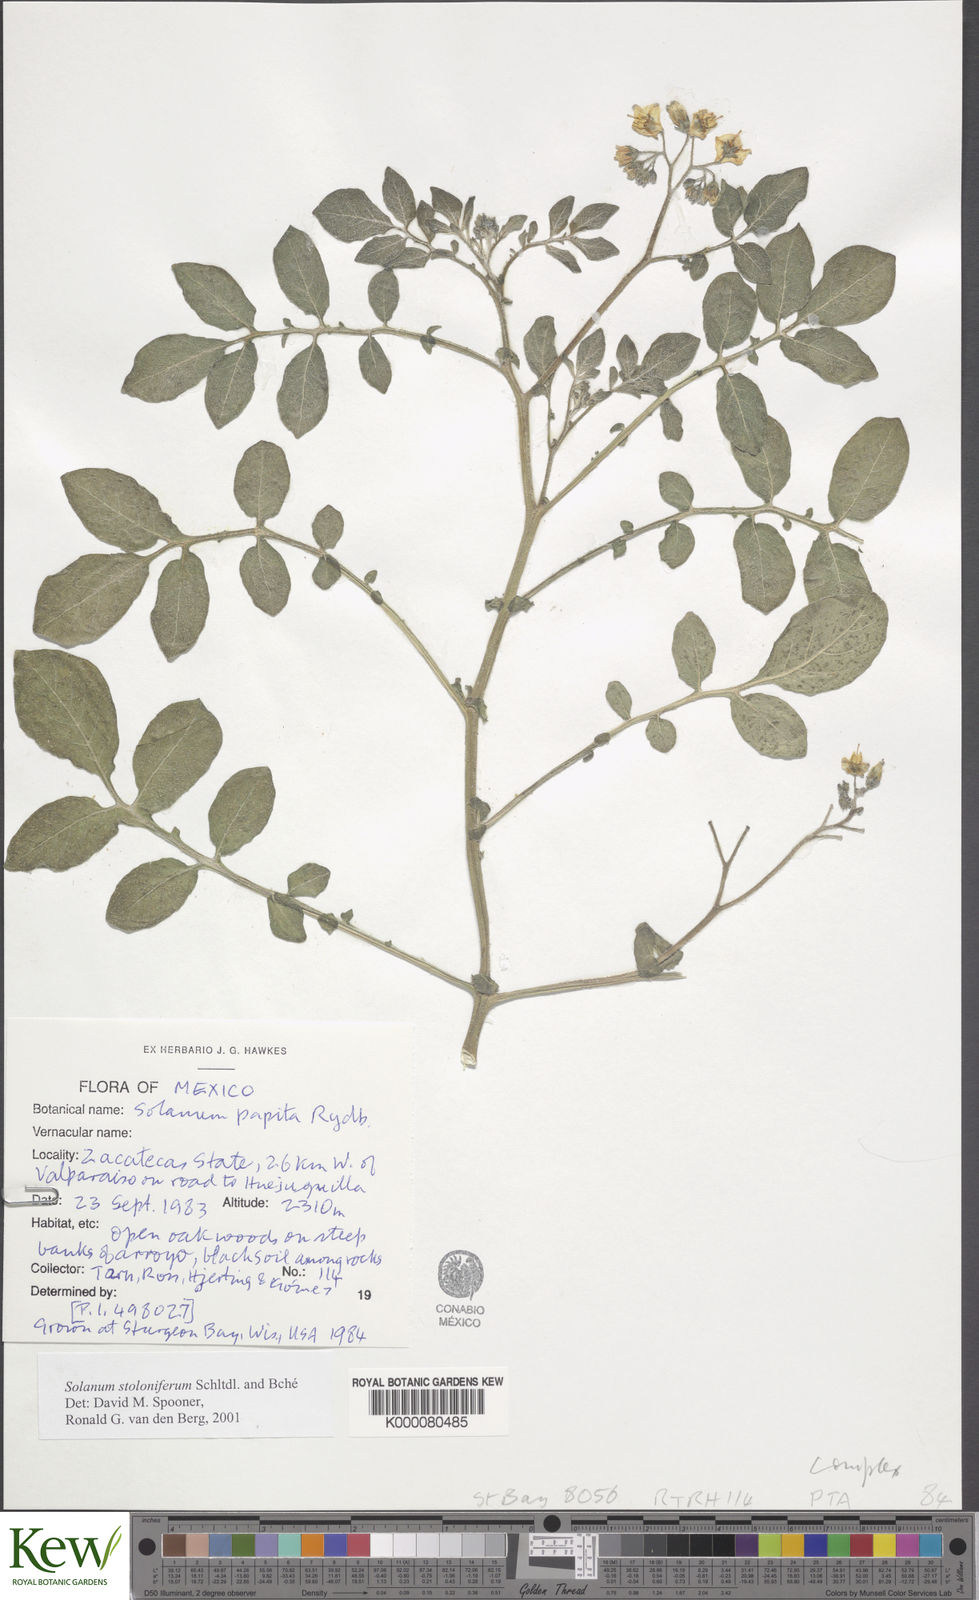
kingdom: Plantae
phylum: Tracheophyta
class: Magnoliopsida
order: Solanales
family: Solanaceae
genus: Solanum
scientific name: Solanum stoloniferum
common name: Fendler's nighshade
